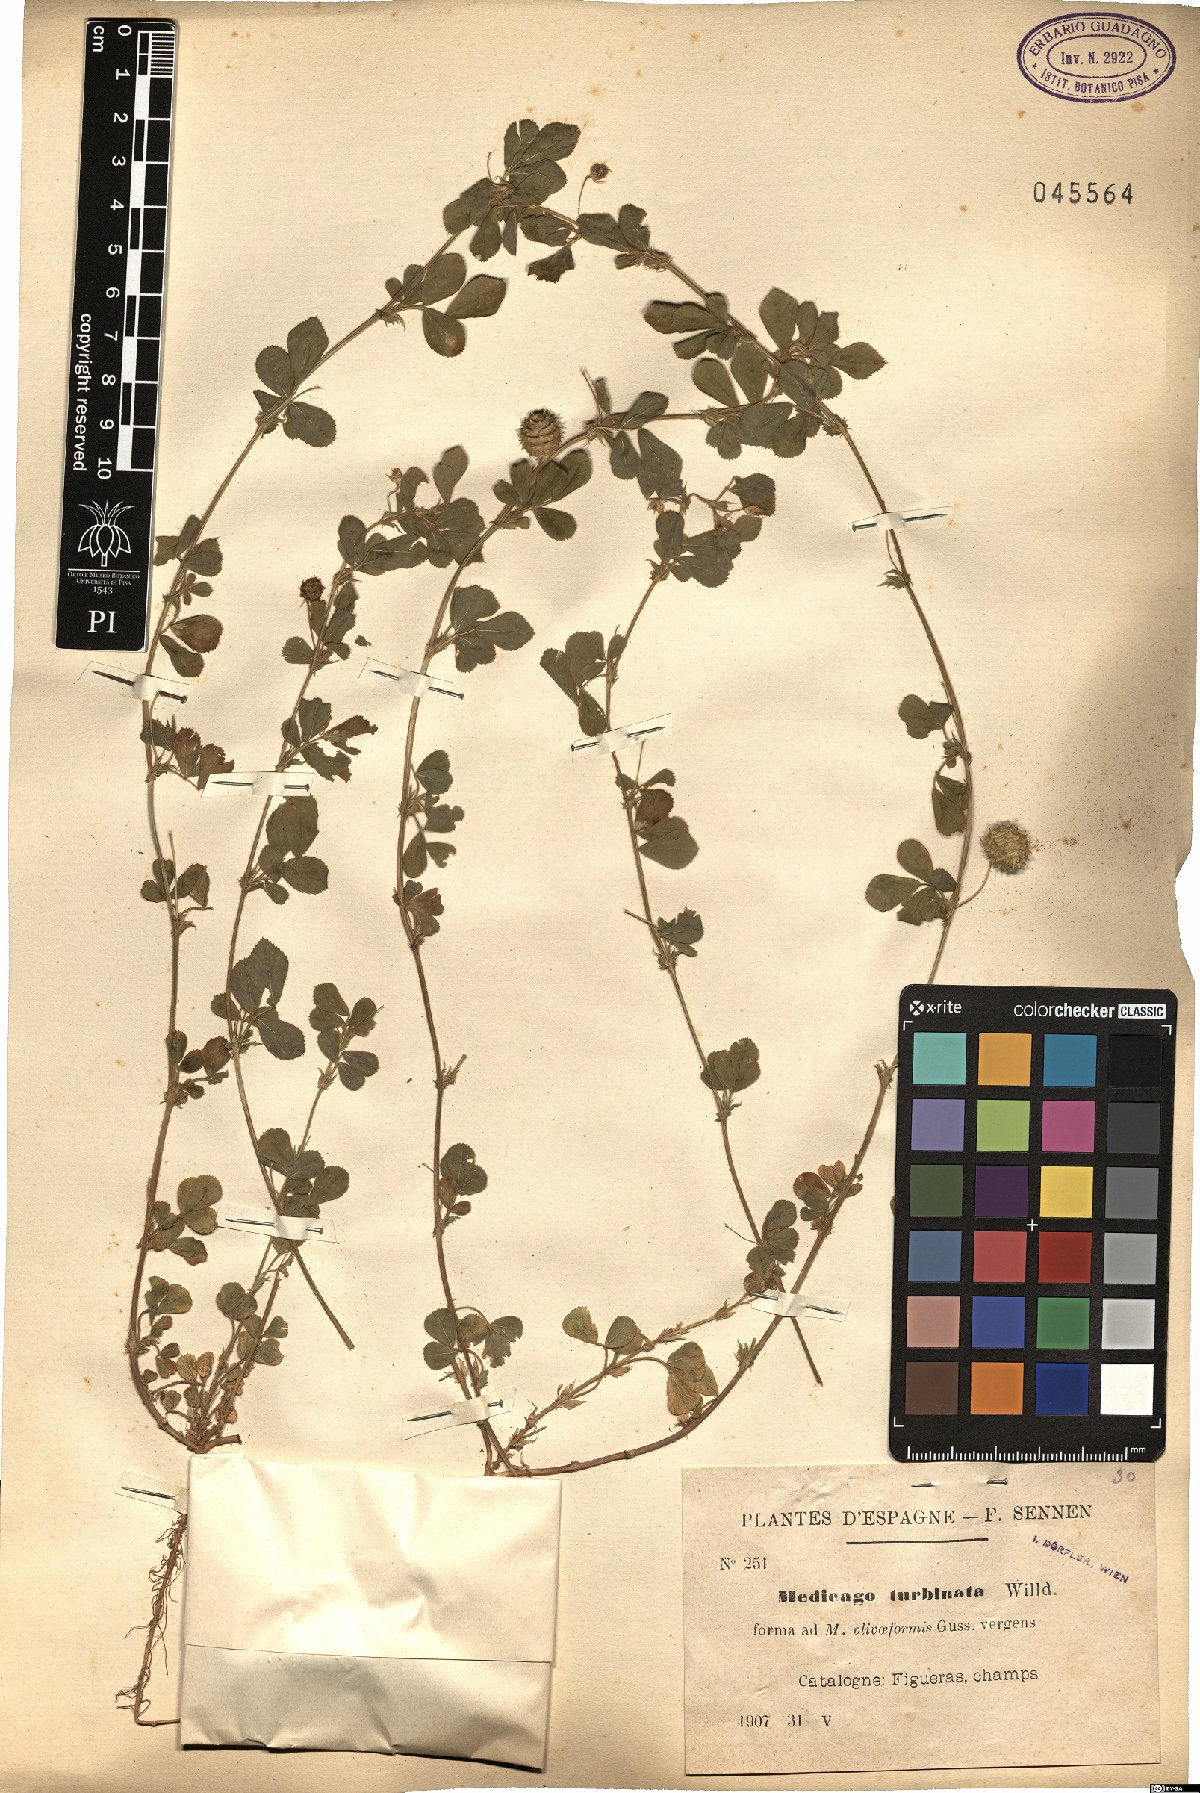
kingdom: Plantae
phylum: Tracheophyta
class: Magnoliopsida
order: Fabales
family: Fabaceae
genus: Medicago
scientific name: Medicago turbinata
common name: Southern medick
